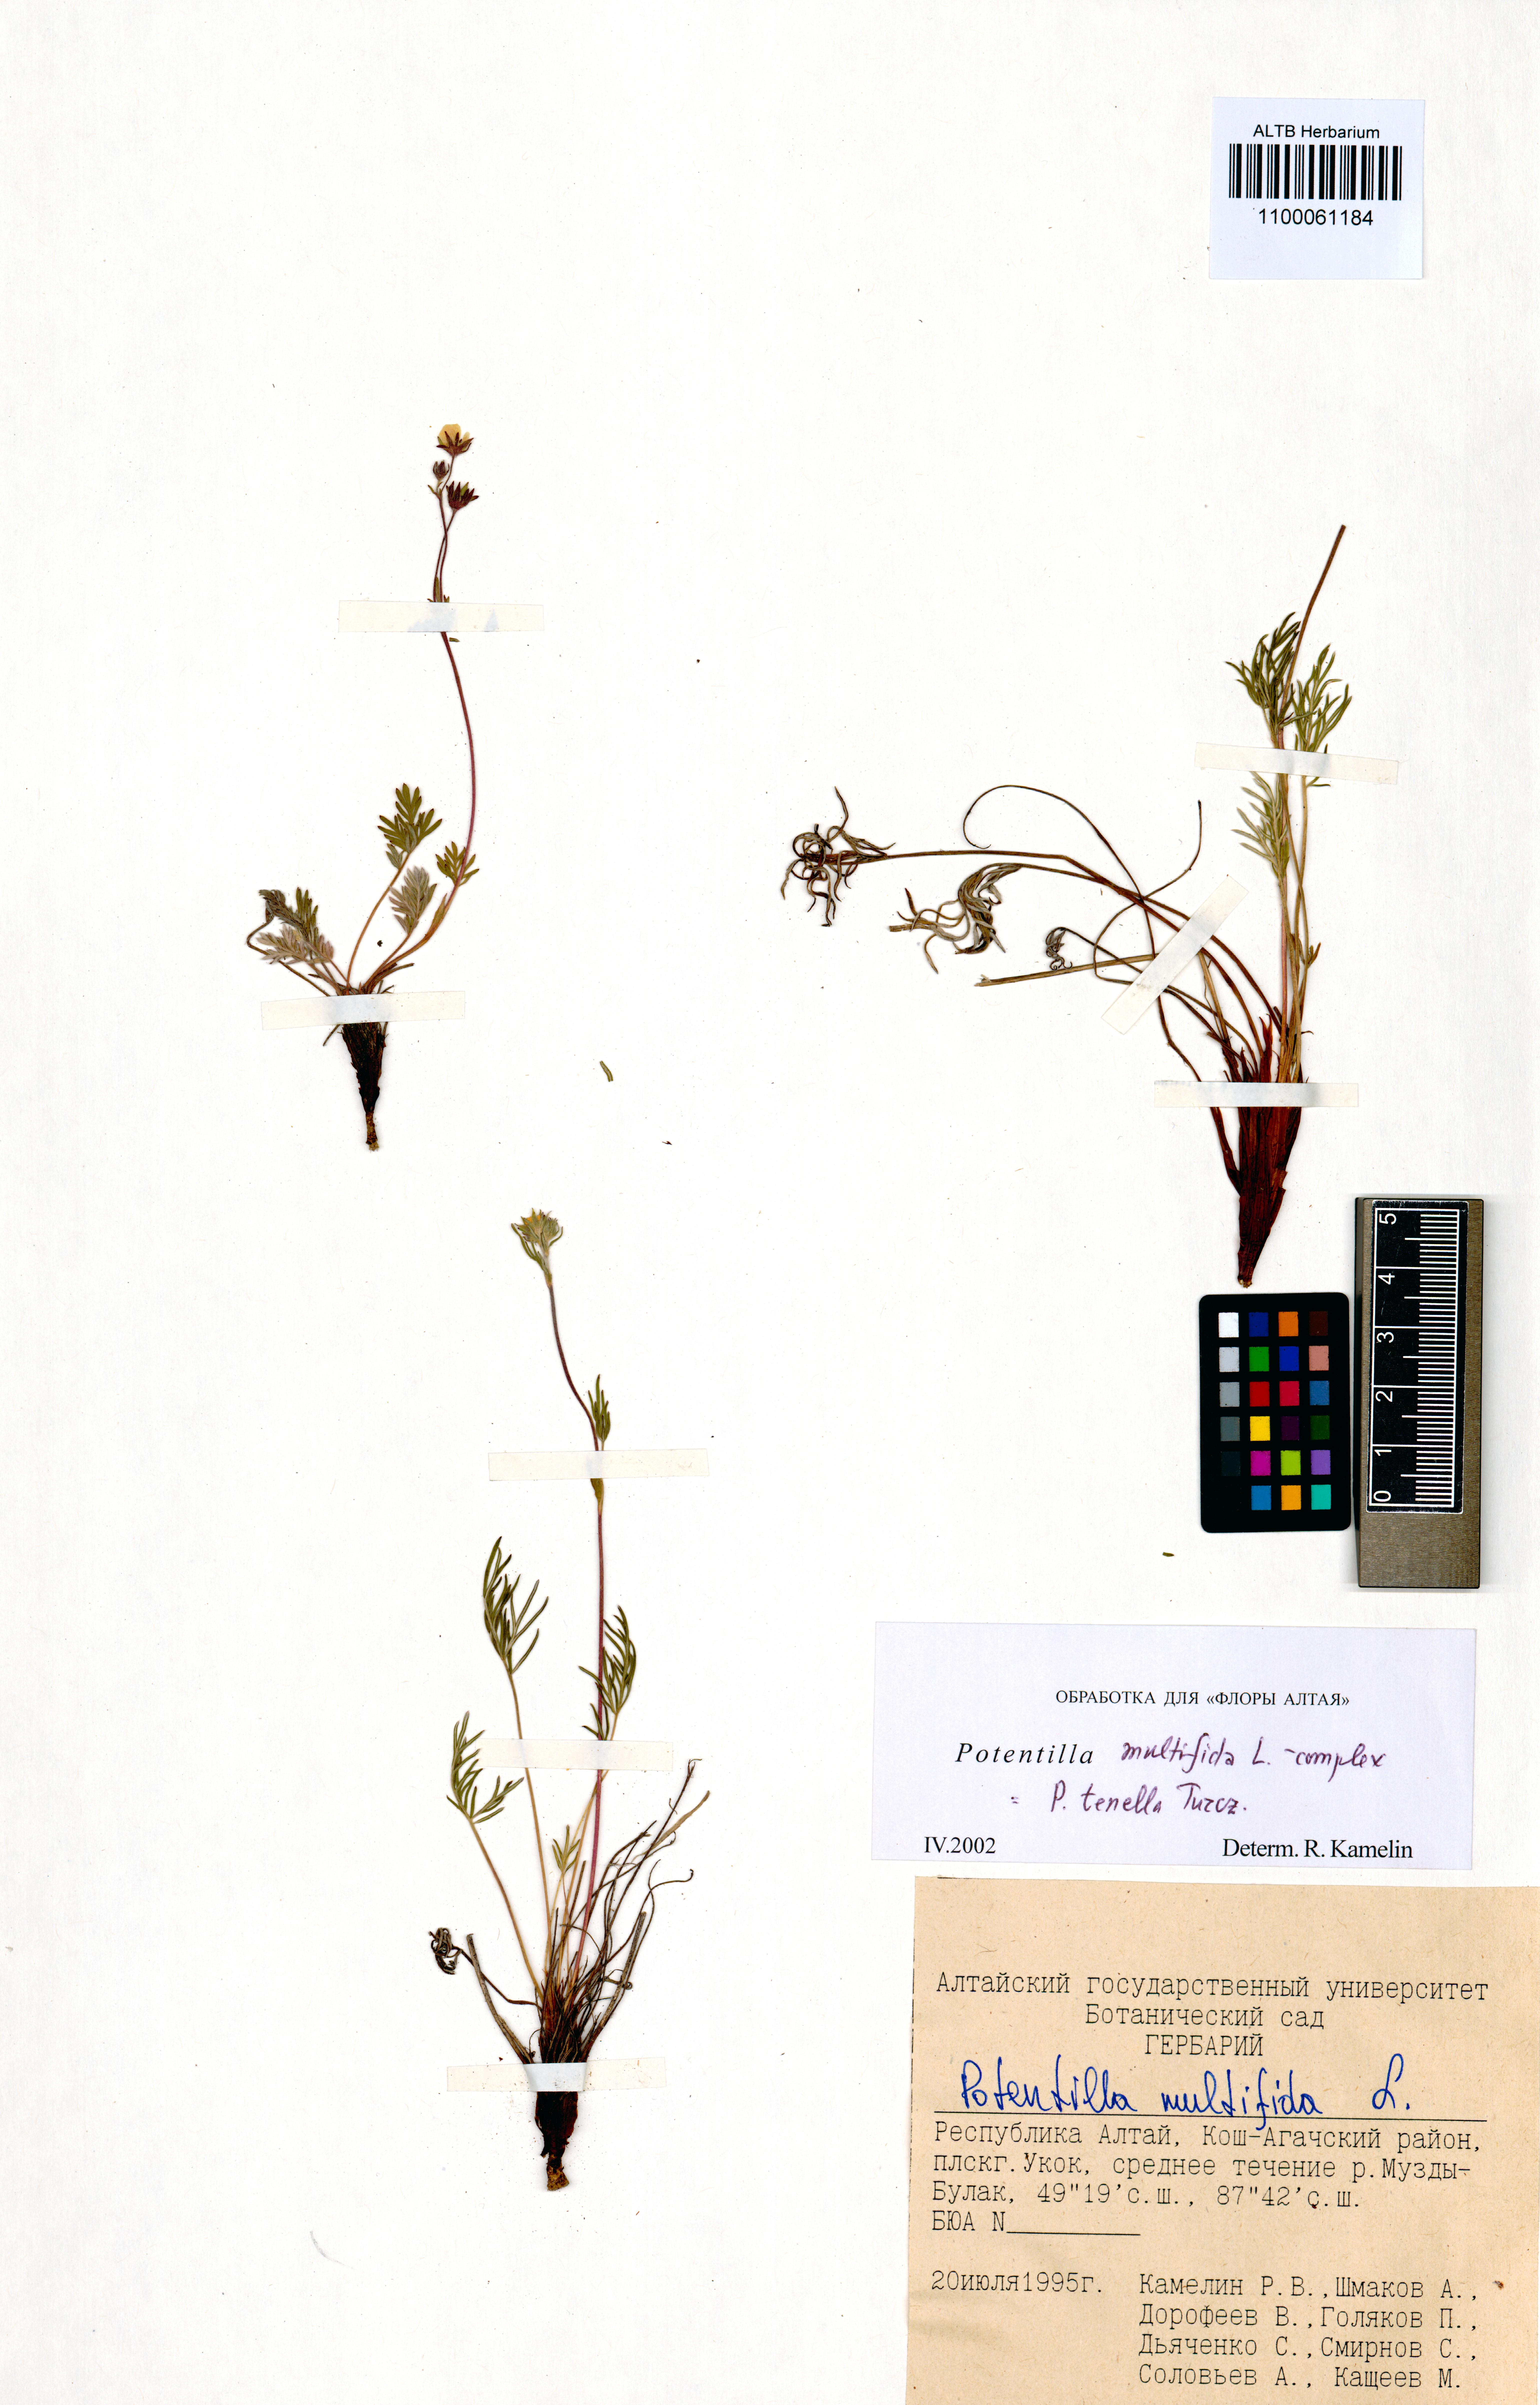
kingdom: Plantae
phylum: Tracheophyta
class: Magnoliopsida
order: Rosales
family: Rosaceae
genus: Potentilla
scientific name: Potentilla multifida
